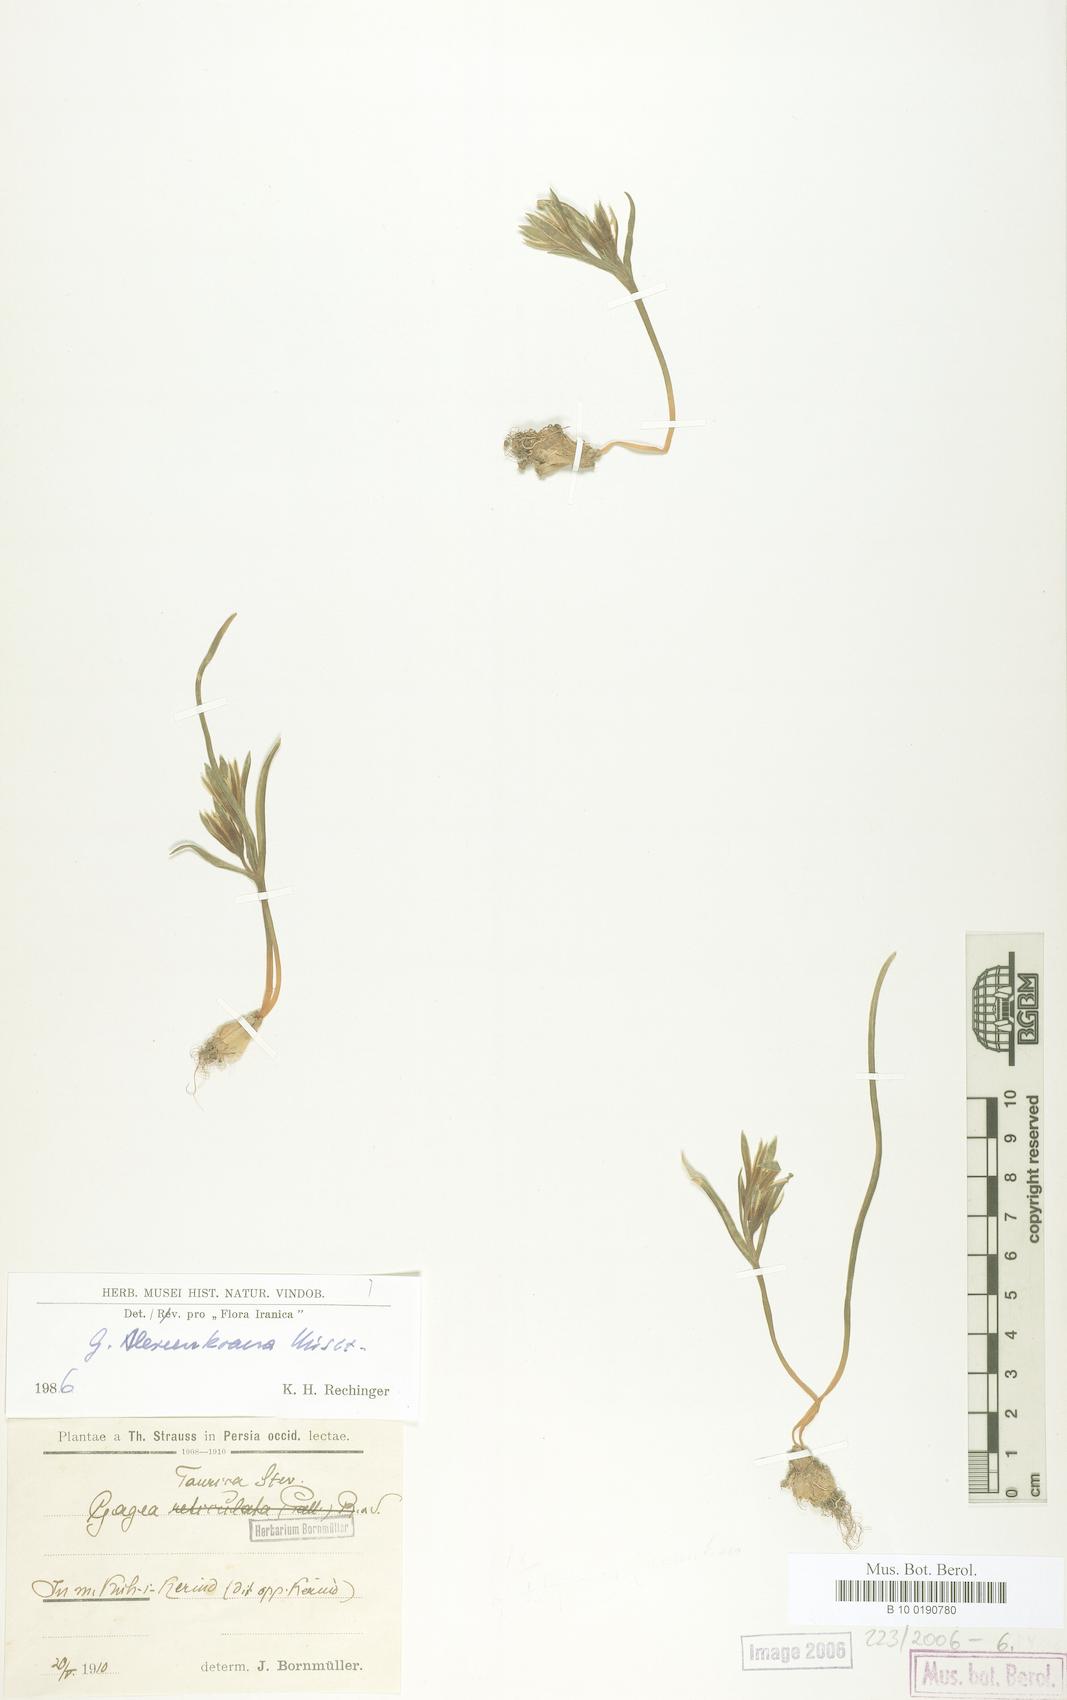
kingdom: Plantae
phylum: Tracheophyta
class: Liliopsida
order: Liliales
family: Liliaceae
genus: Gagea
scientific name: Gagea alexeenkoana
